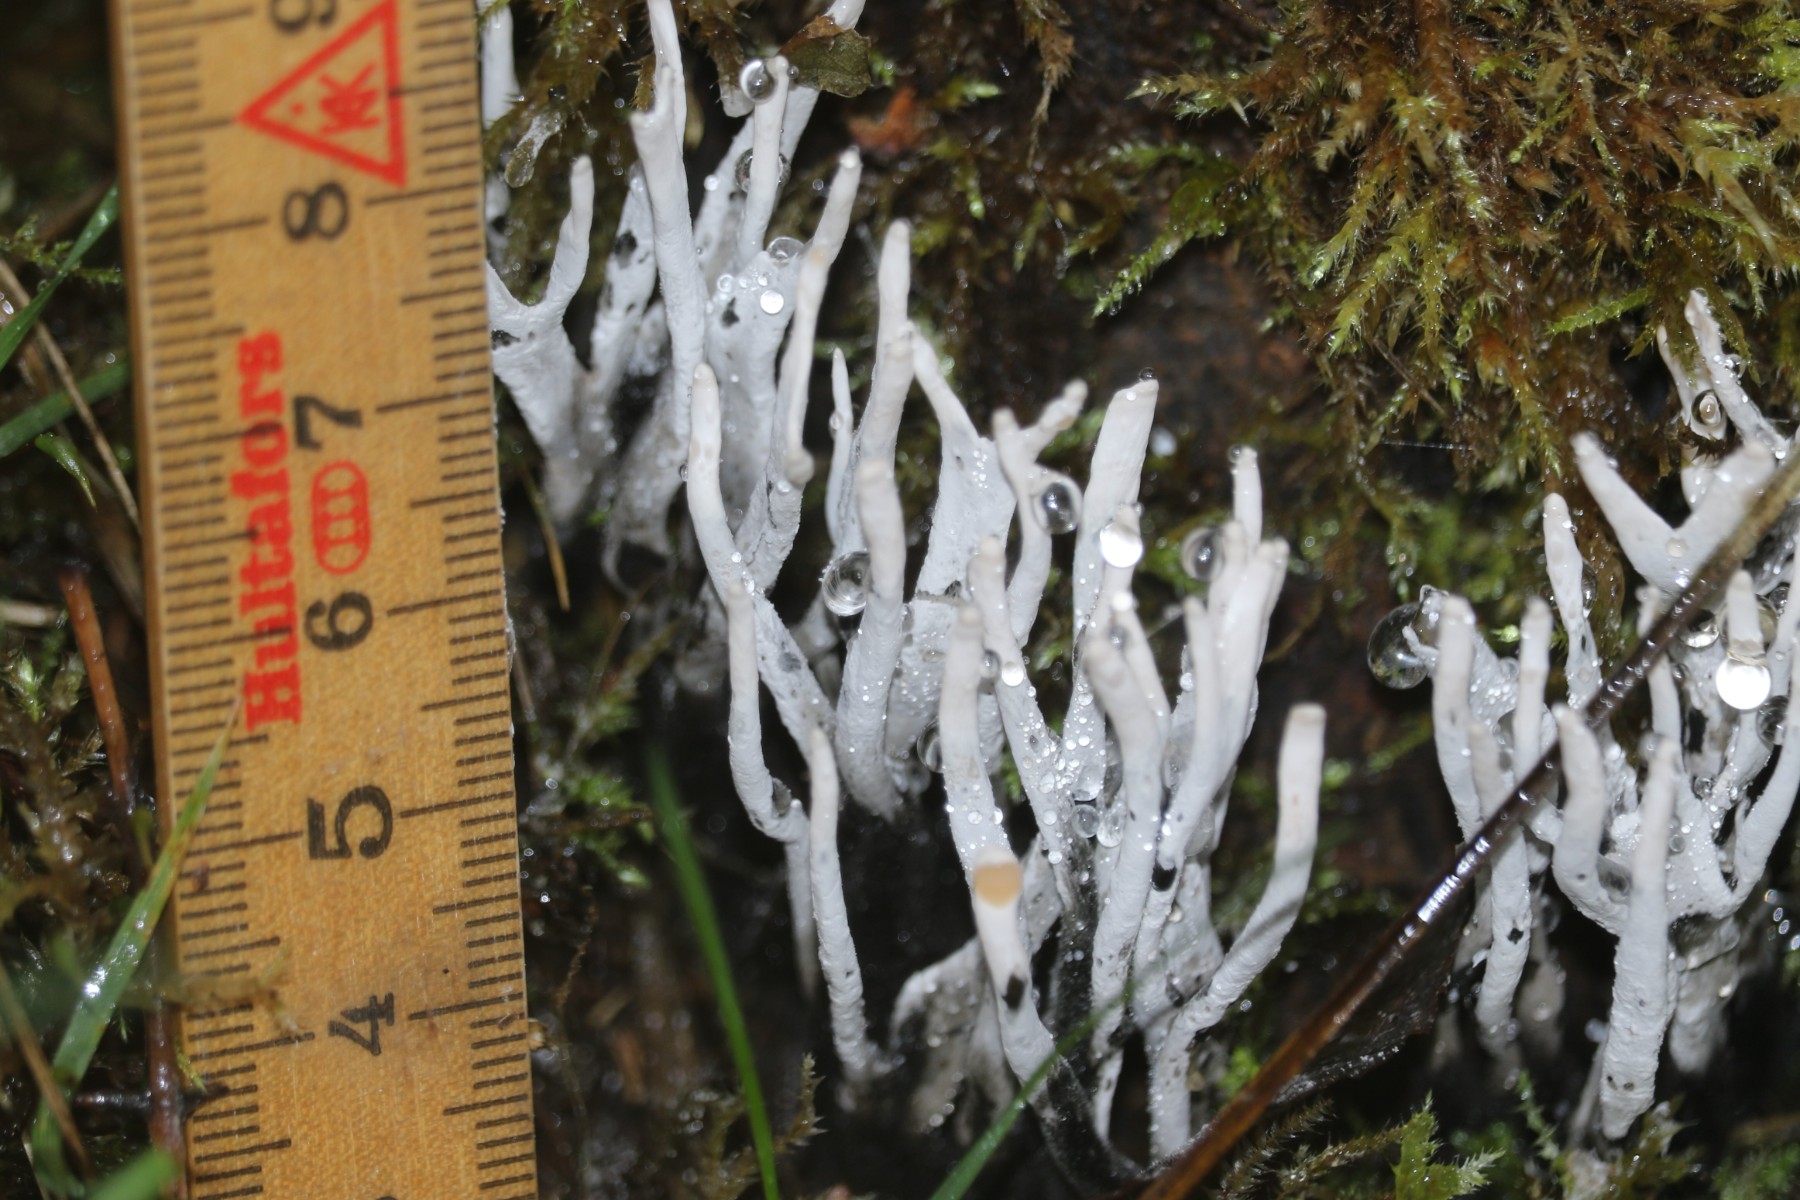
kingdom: Fungi
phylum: Ascomycota
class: Sordariomycetes
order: Xylariales
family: Xylariaceae
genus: Xylaria
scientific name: Xylaria hypoxylon
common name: grenet stødsvamp
